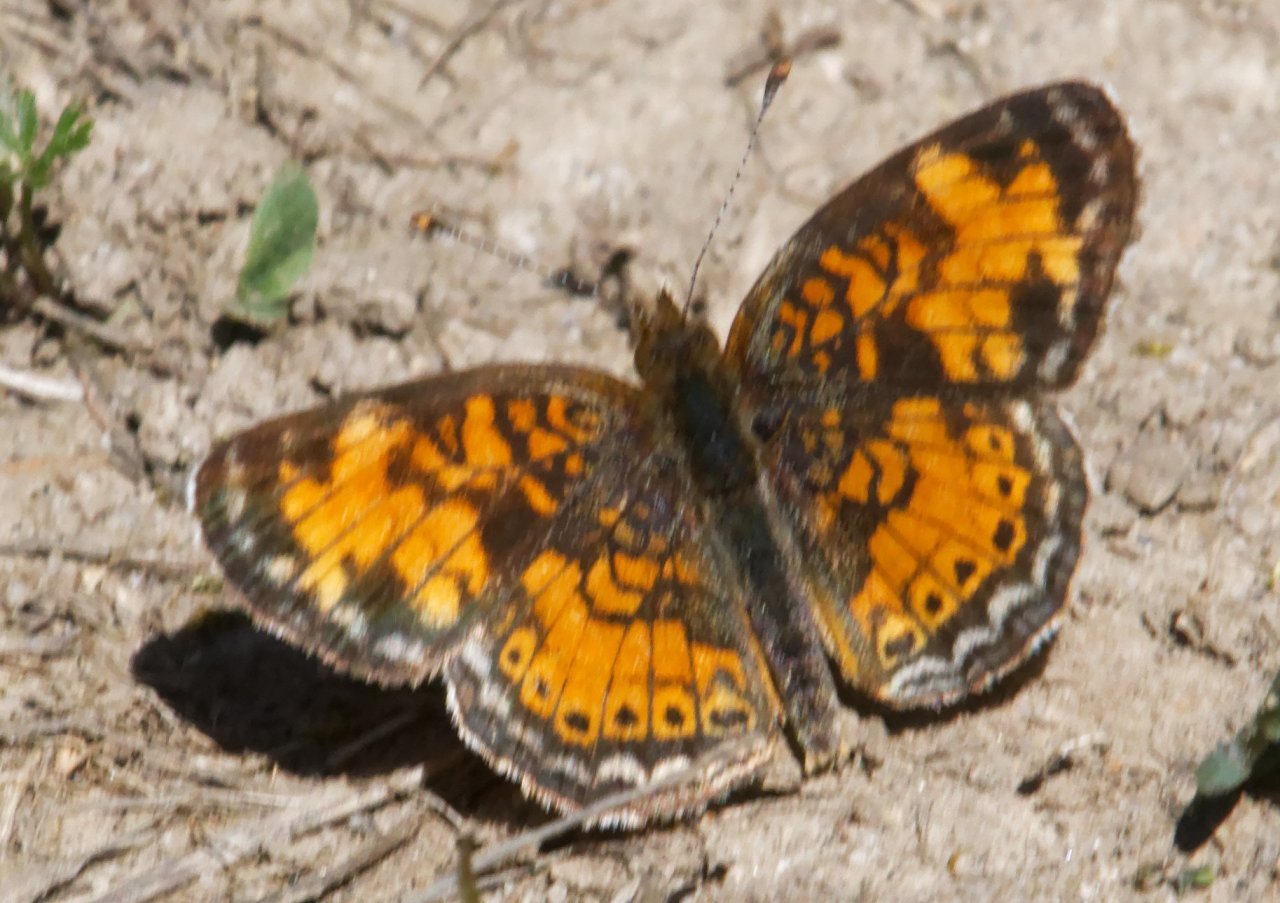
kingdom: Animalia
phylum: Arthropoda
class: Insecta
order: Lepidoptera
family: Nymphalidae
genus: Phyciodes
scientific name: Phyciodes
